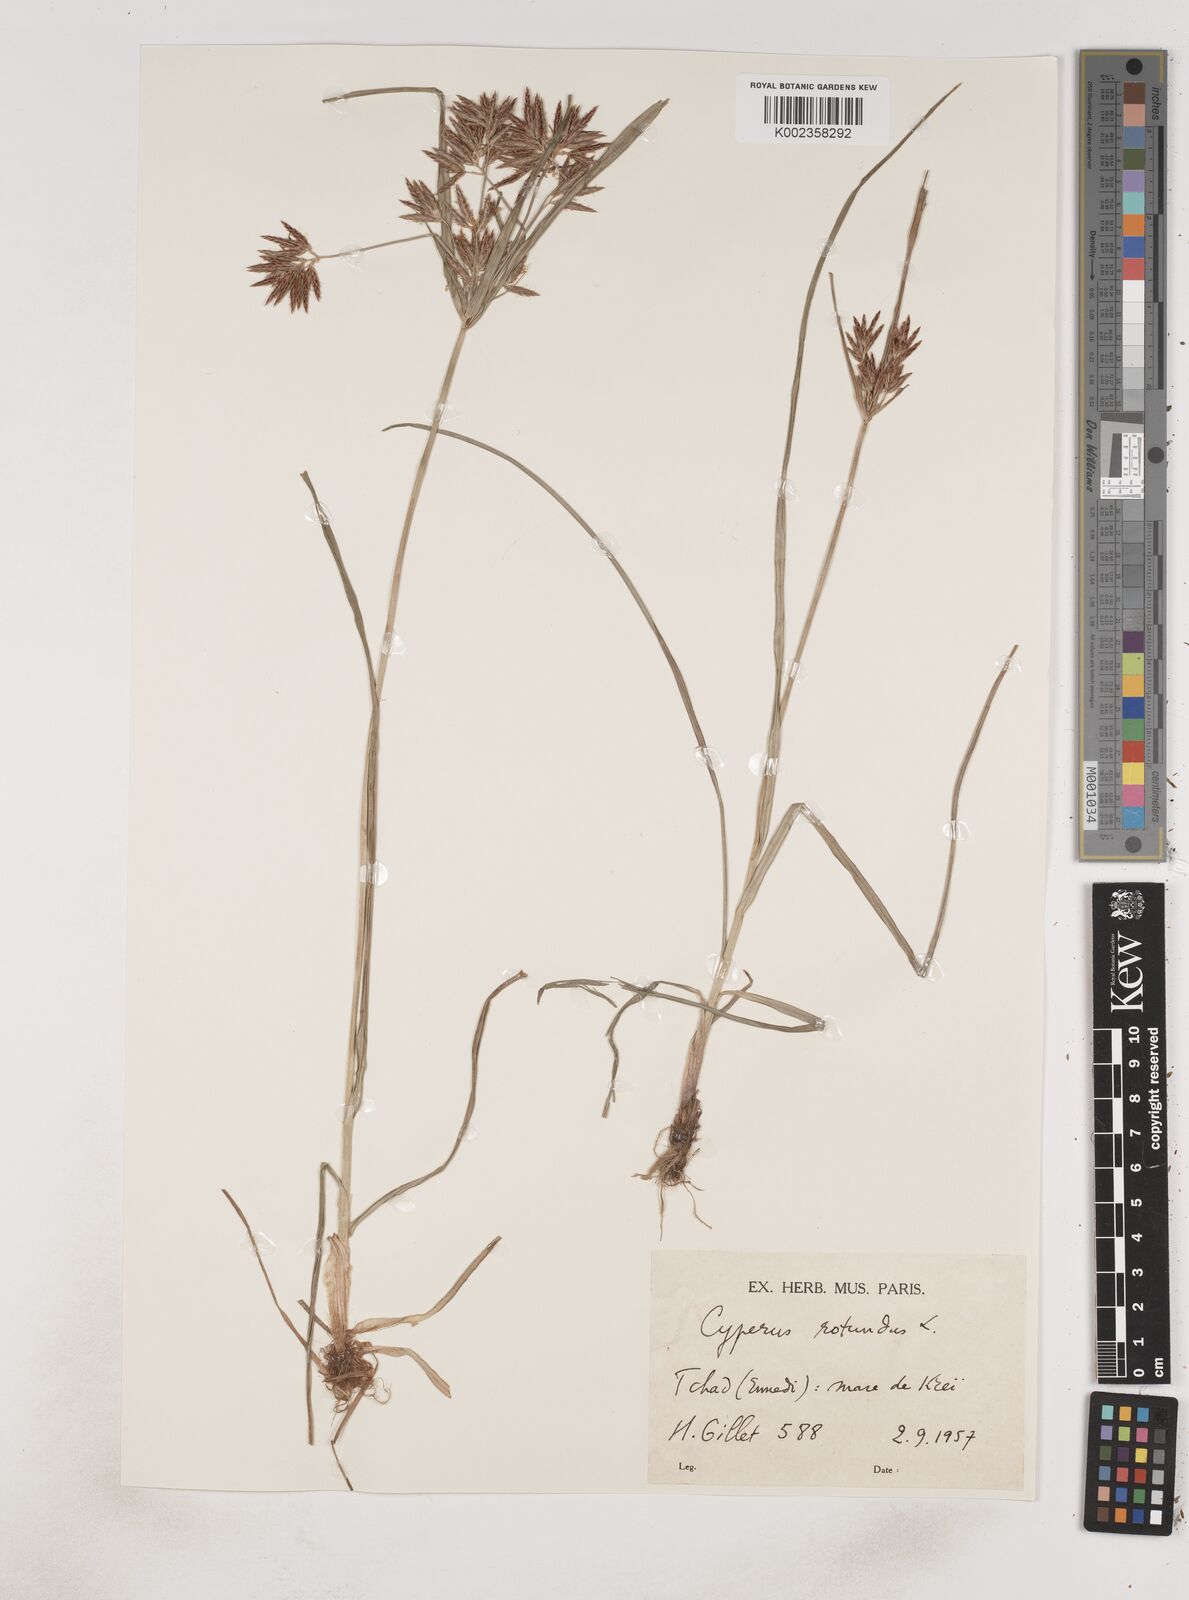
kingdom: Plantae
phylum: Tracheophyta
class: Liliopsida
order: Poales
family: Cyperaceae
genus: Cyperus
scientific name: Cyperus rotundus
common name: Nutgrass
